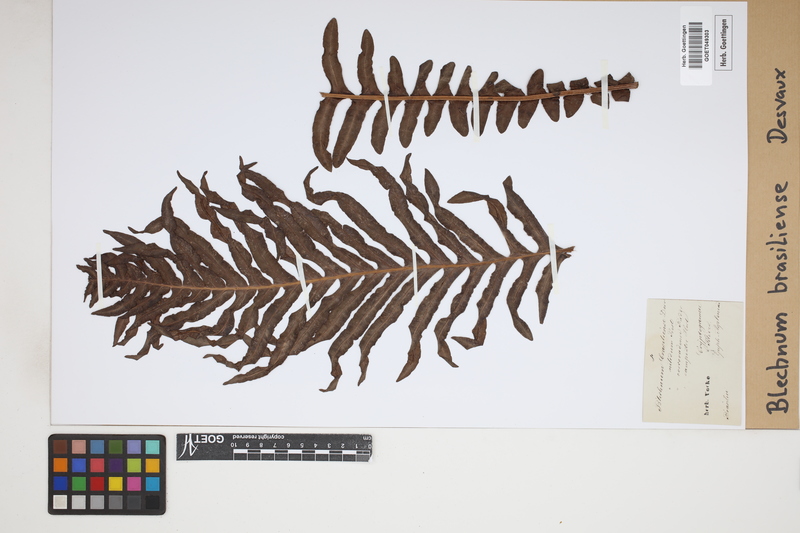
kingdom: Plantae
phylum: Tracheophyta
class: Polypodiopsida
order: Polypodiales
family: Blechnaceae
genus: Neoblechnum
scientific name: Neoblechnum brasiliense
